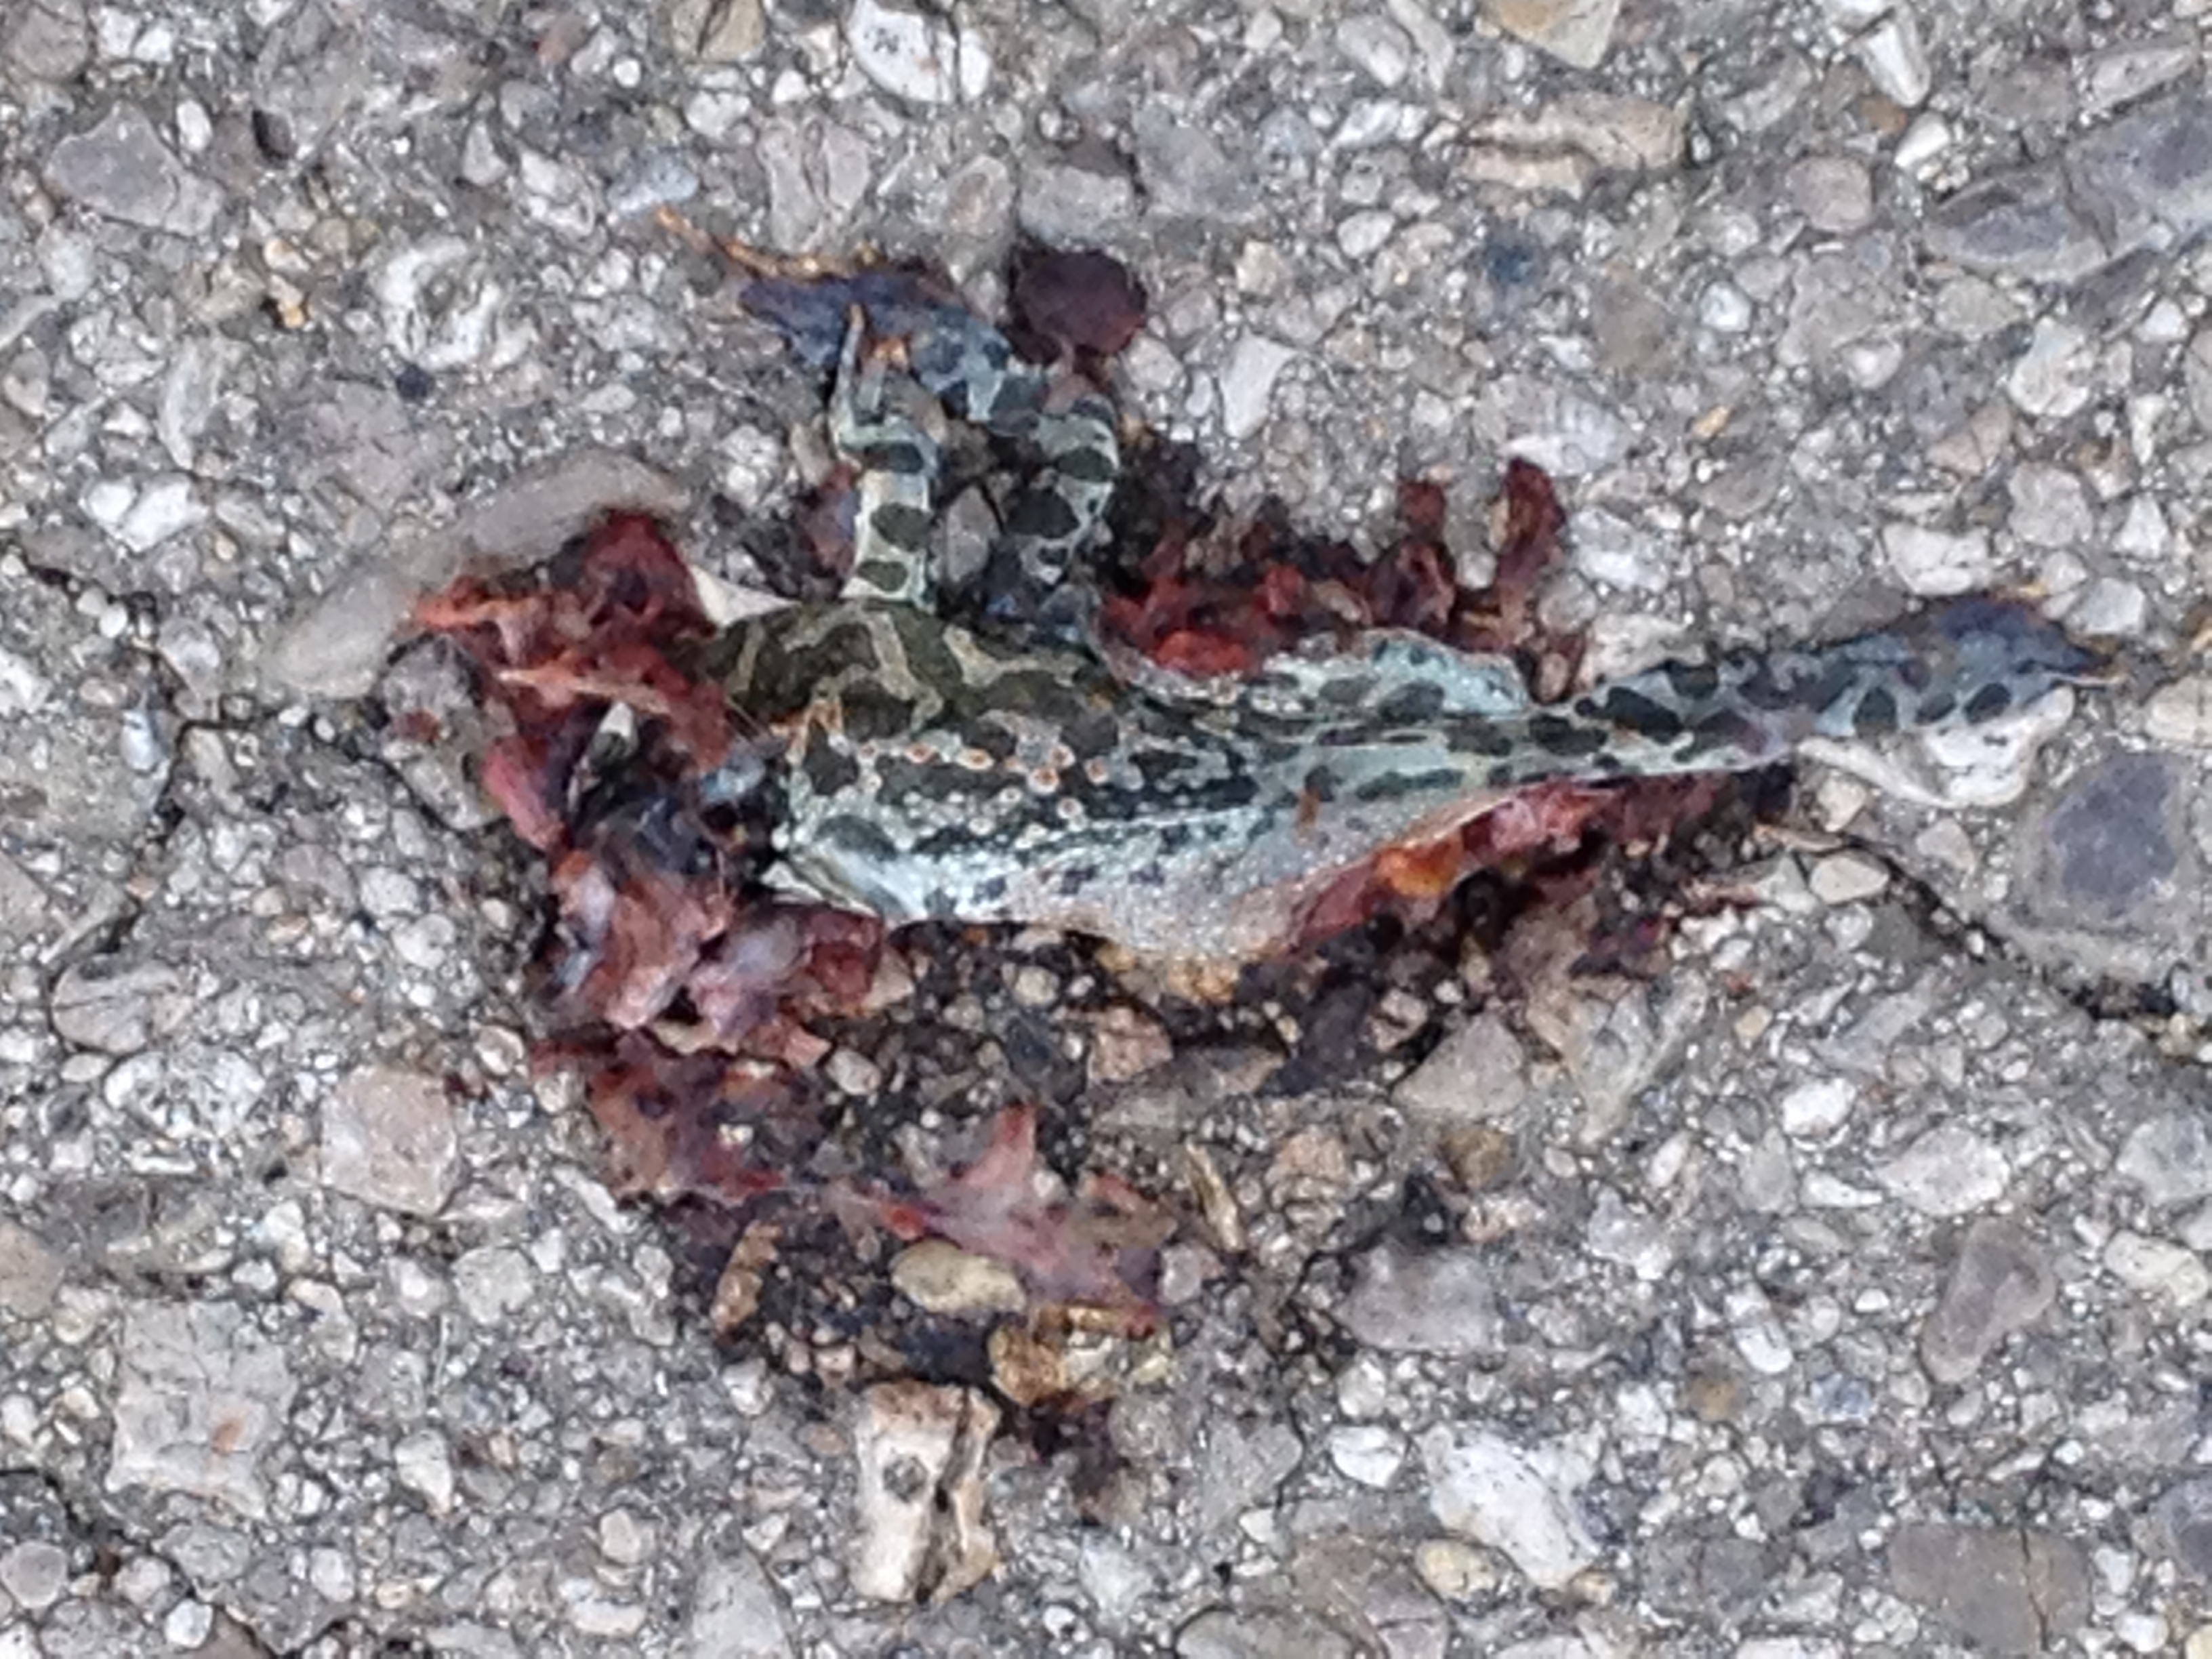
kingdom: Animalia
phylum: Chordata
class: Amphibia
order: Anura
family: Bufonidae
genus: Bufotes
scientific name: Bufotes viridis
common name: European green toad
